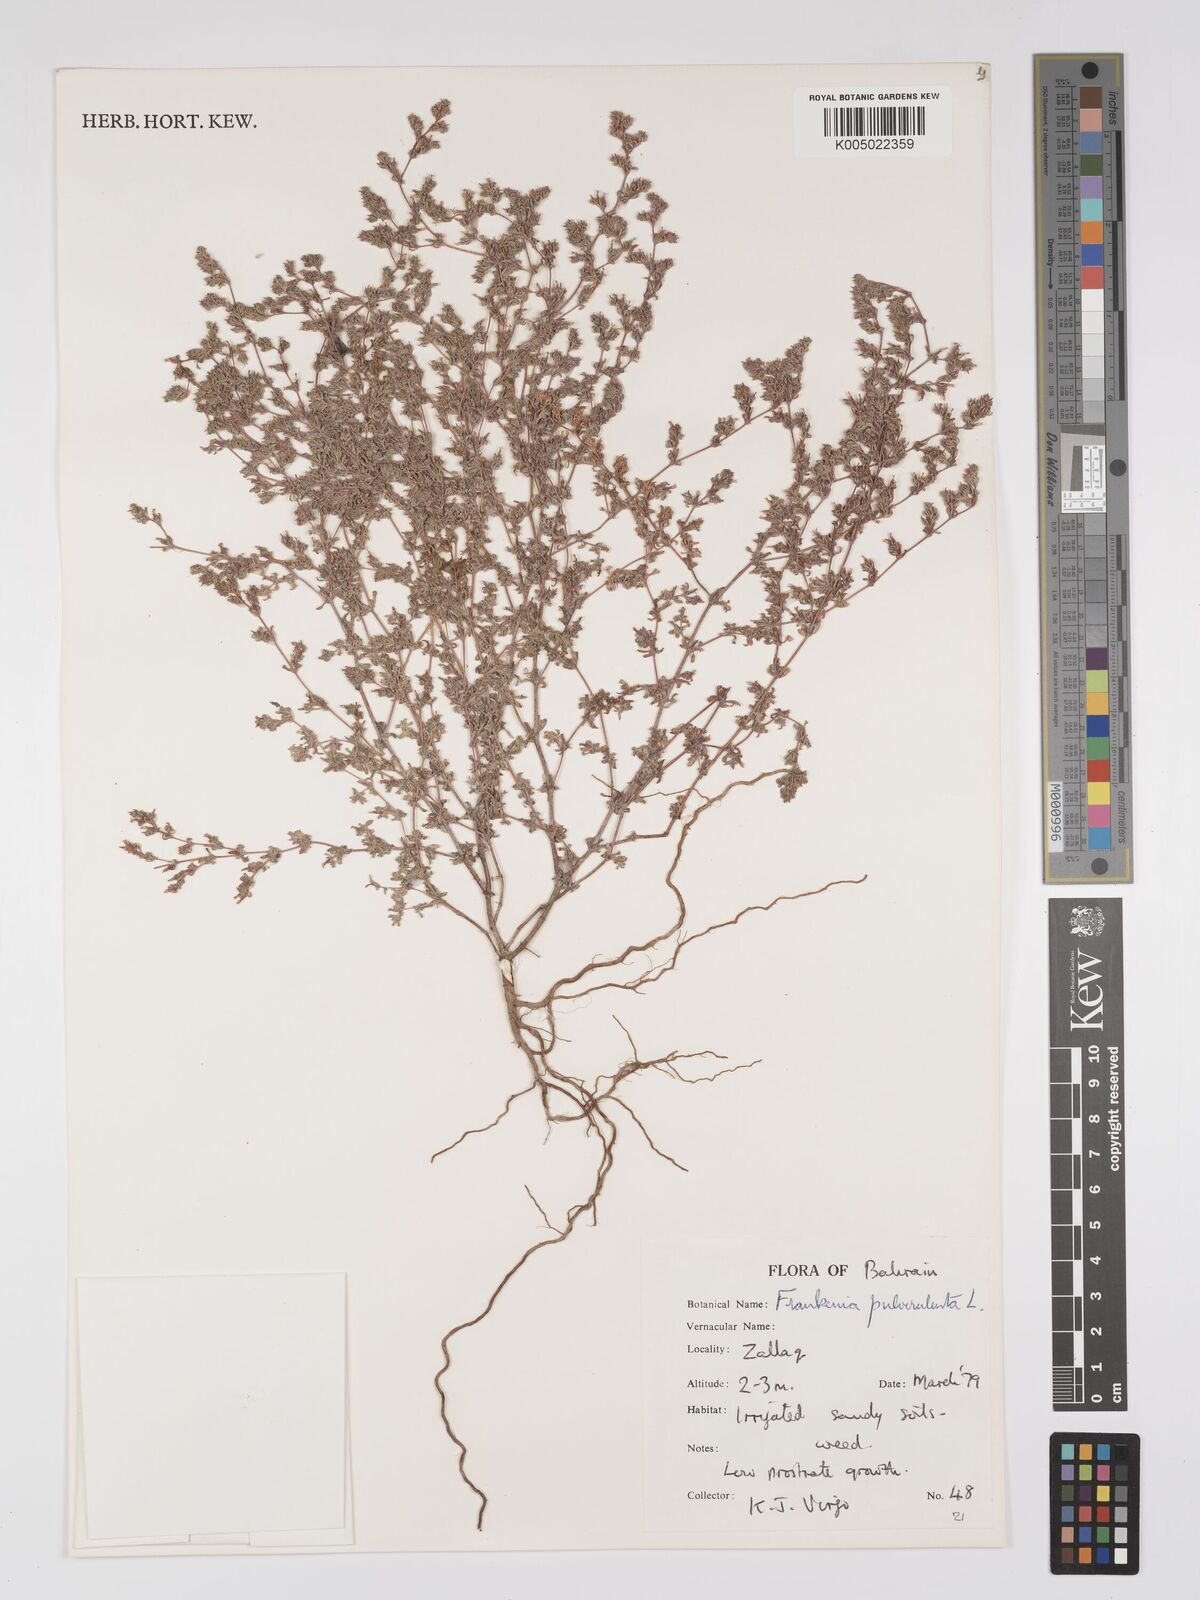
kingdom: Plantae
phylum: Tracheophyta
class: Magnoliopsida
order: Caryophyllales
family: Frankeniaceae
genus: Frankenia
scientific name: Frankenia pulverulenta
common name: European seaheath
